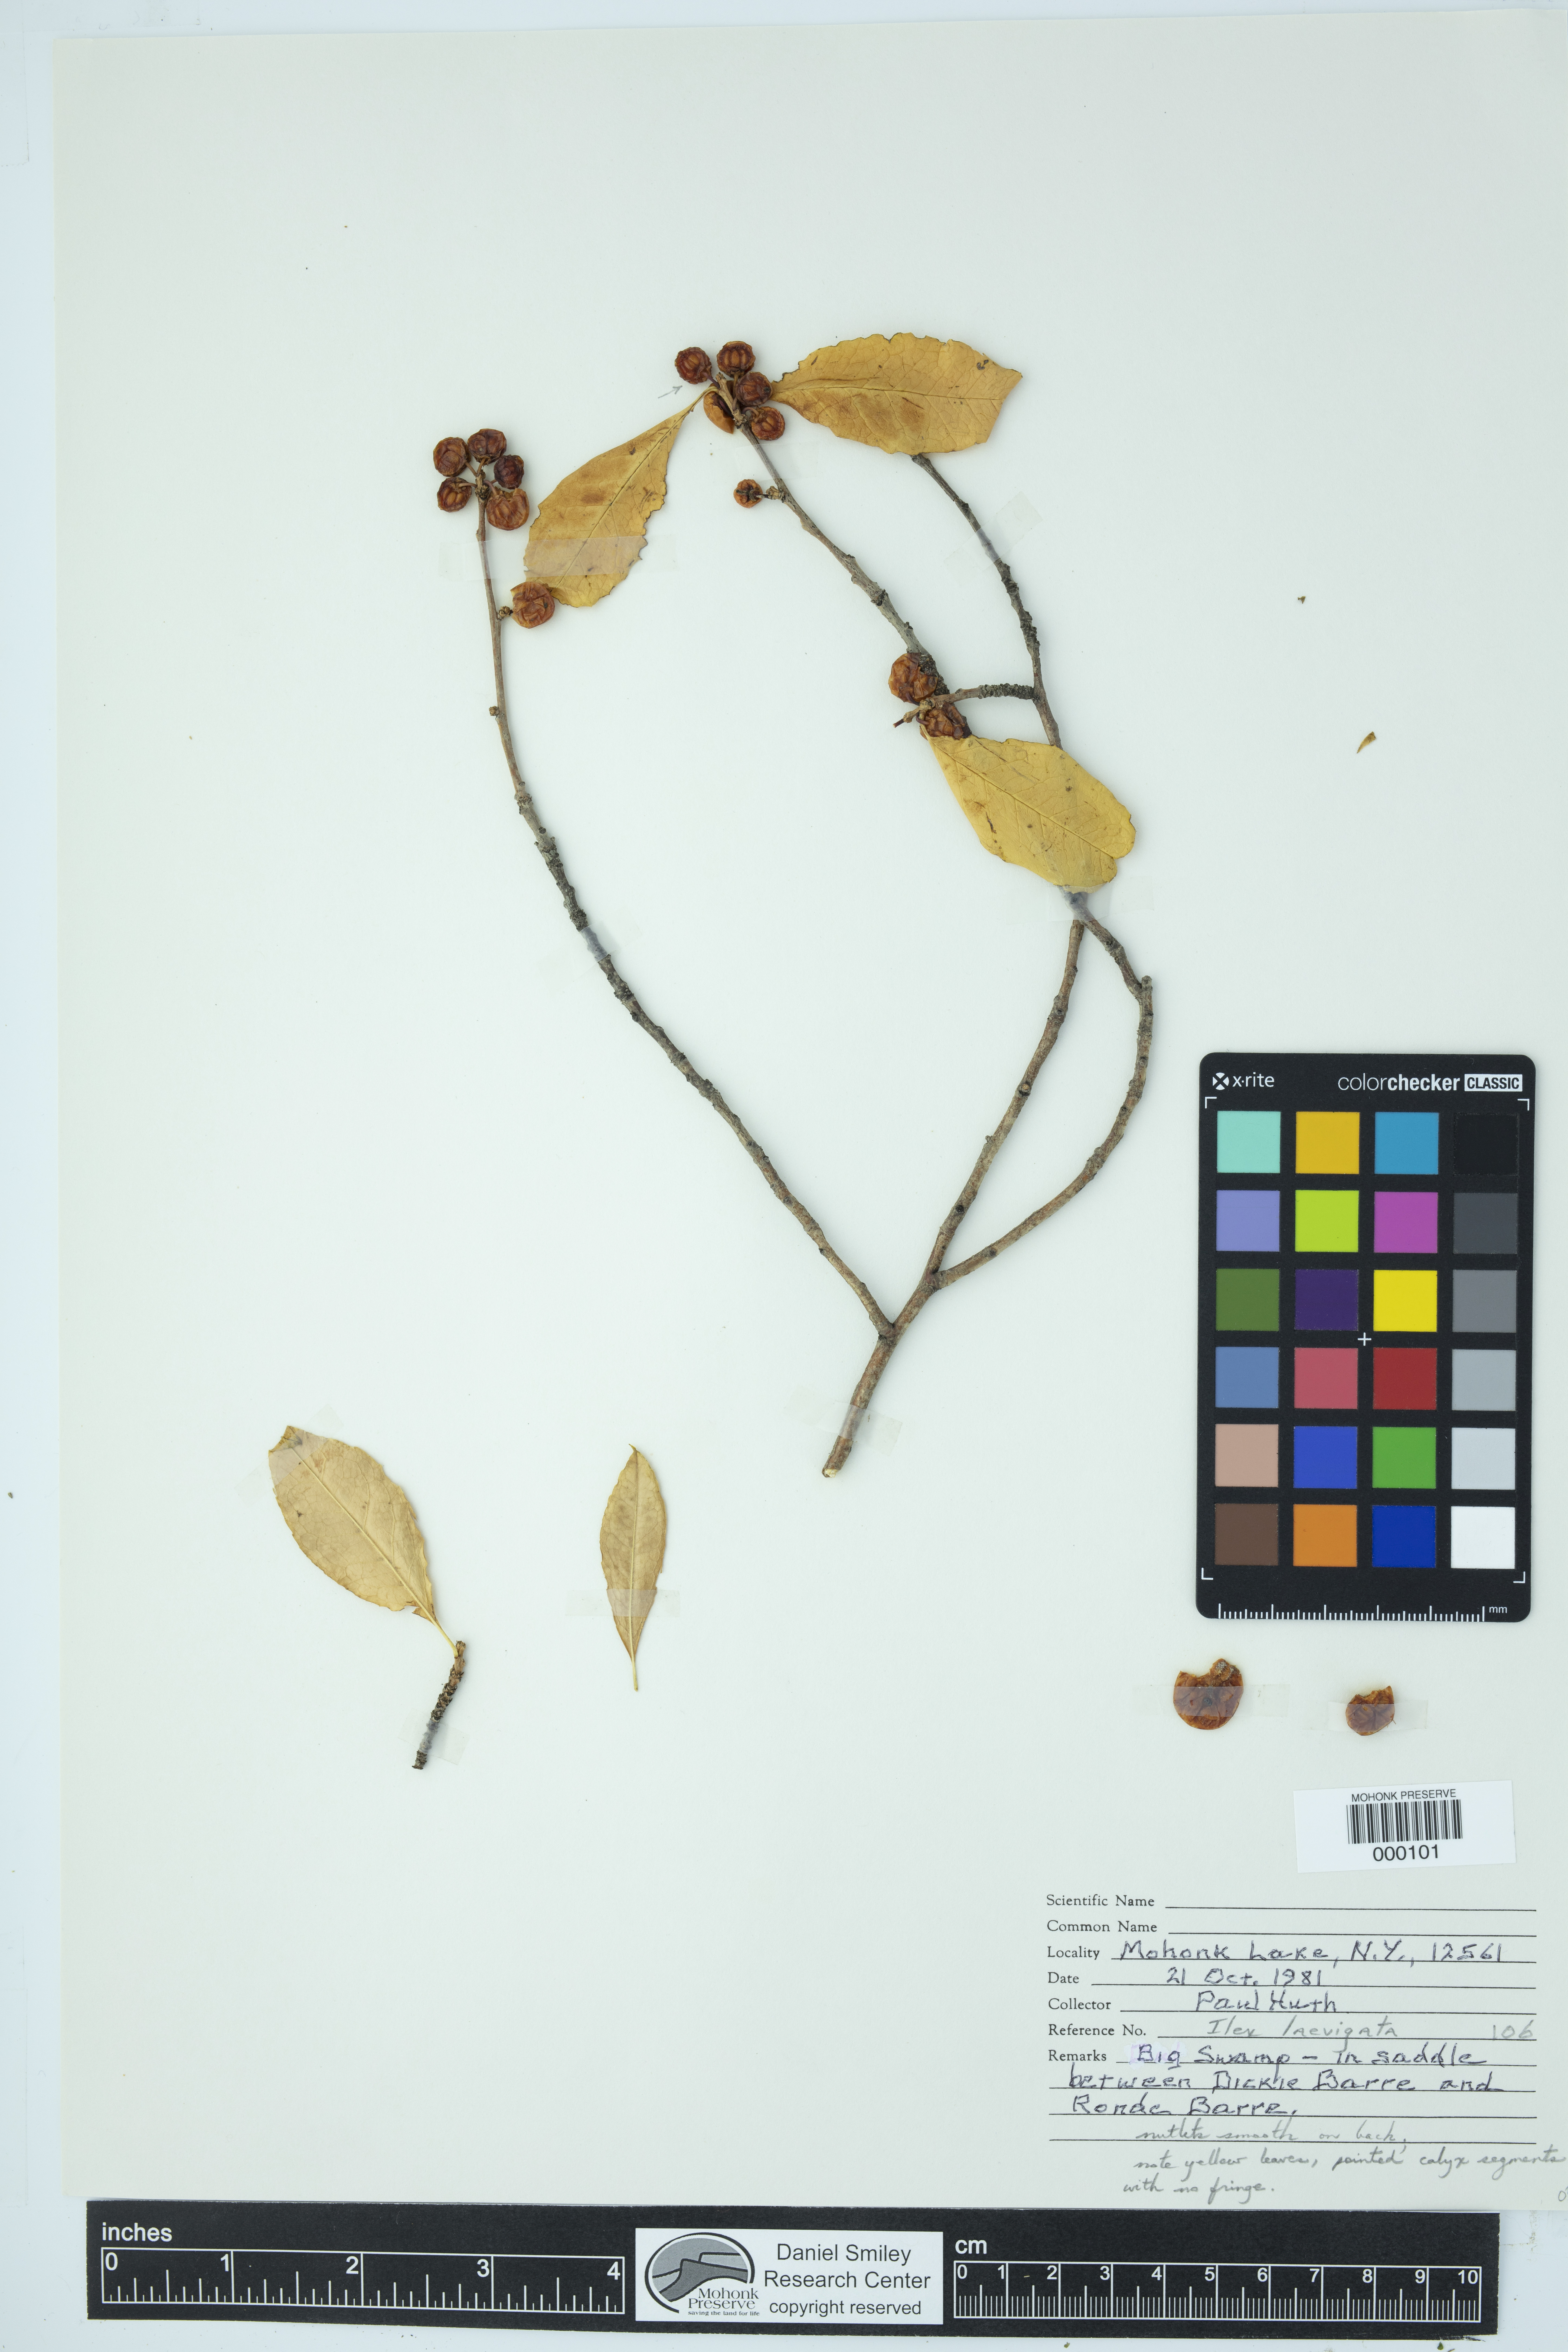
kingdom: Plantae
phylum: Tracheophyta
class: Magnoliopsida
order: Aquifoliales
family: Aquifoliaceae
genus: Ilex
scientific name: Ilex laevigata
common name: Smooth winterberry
